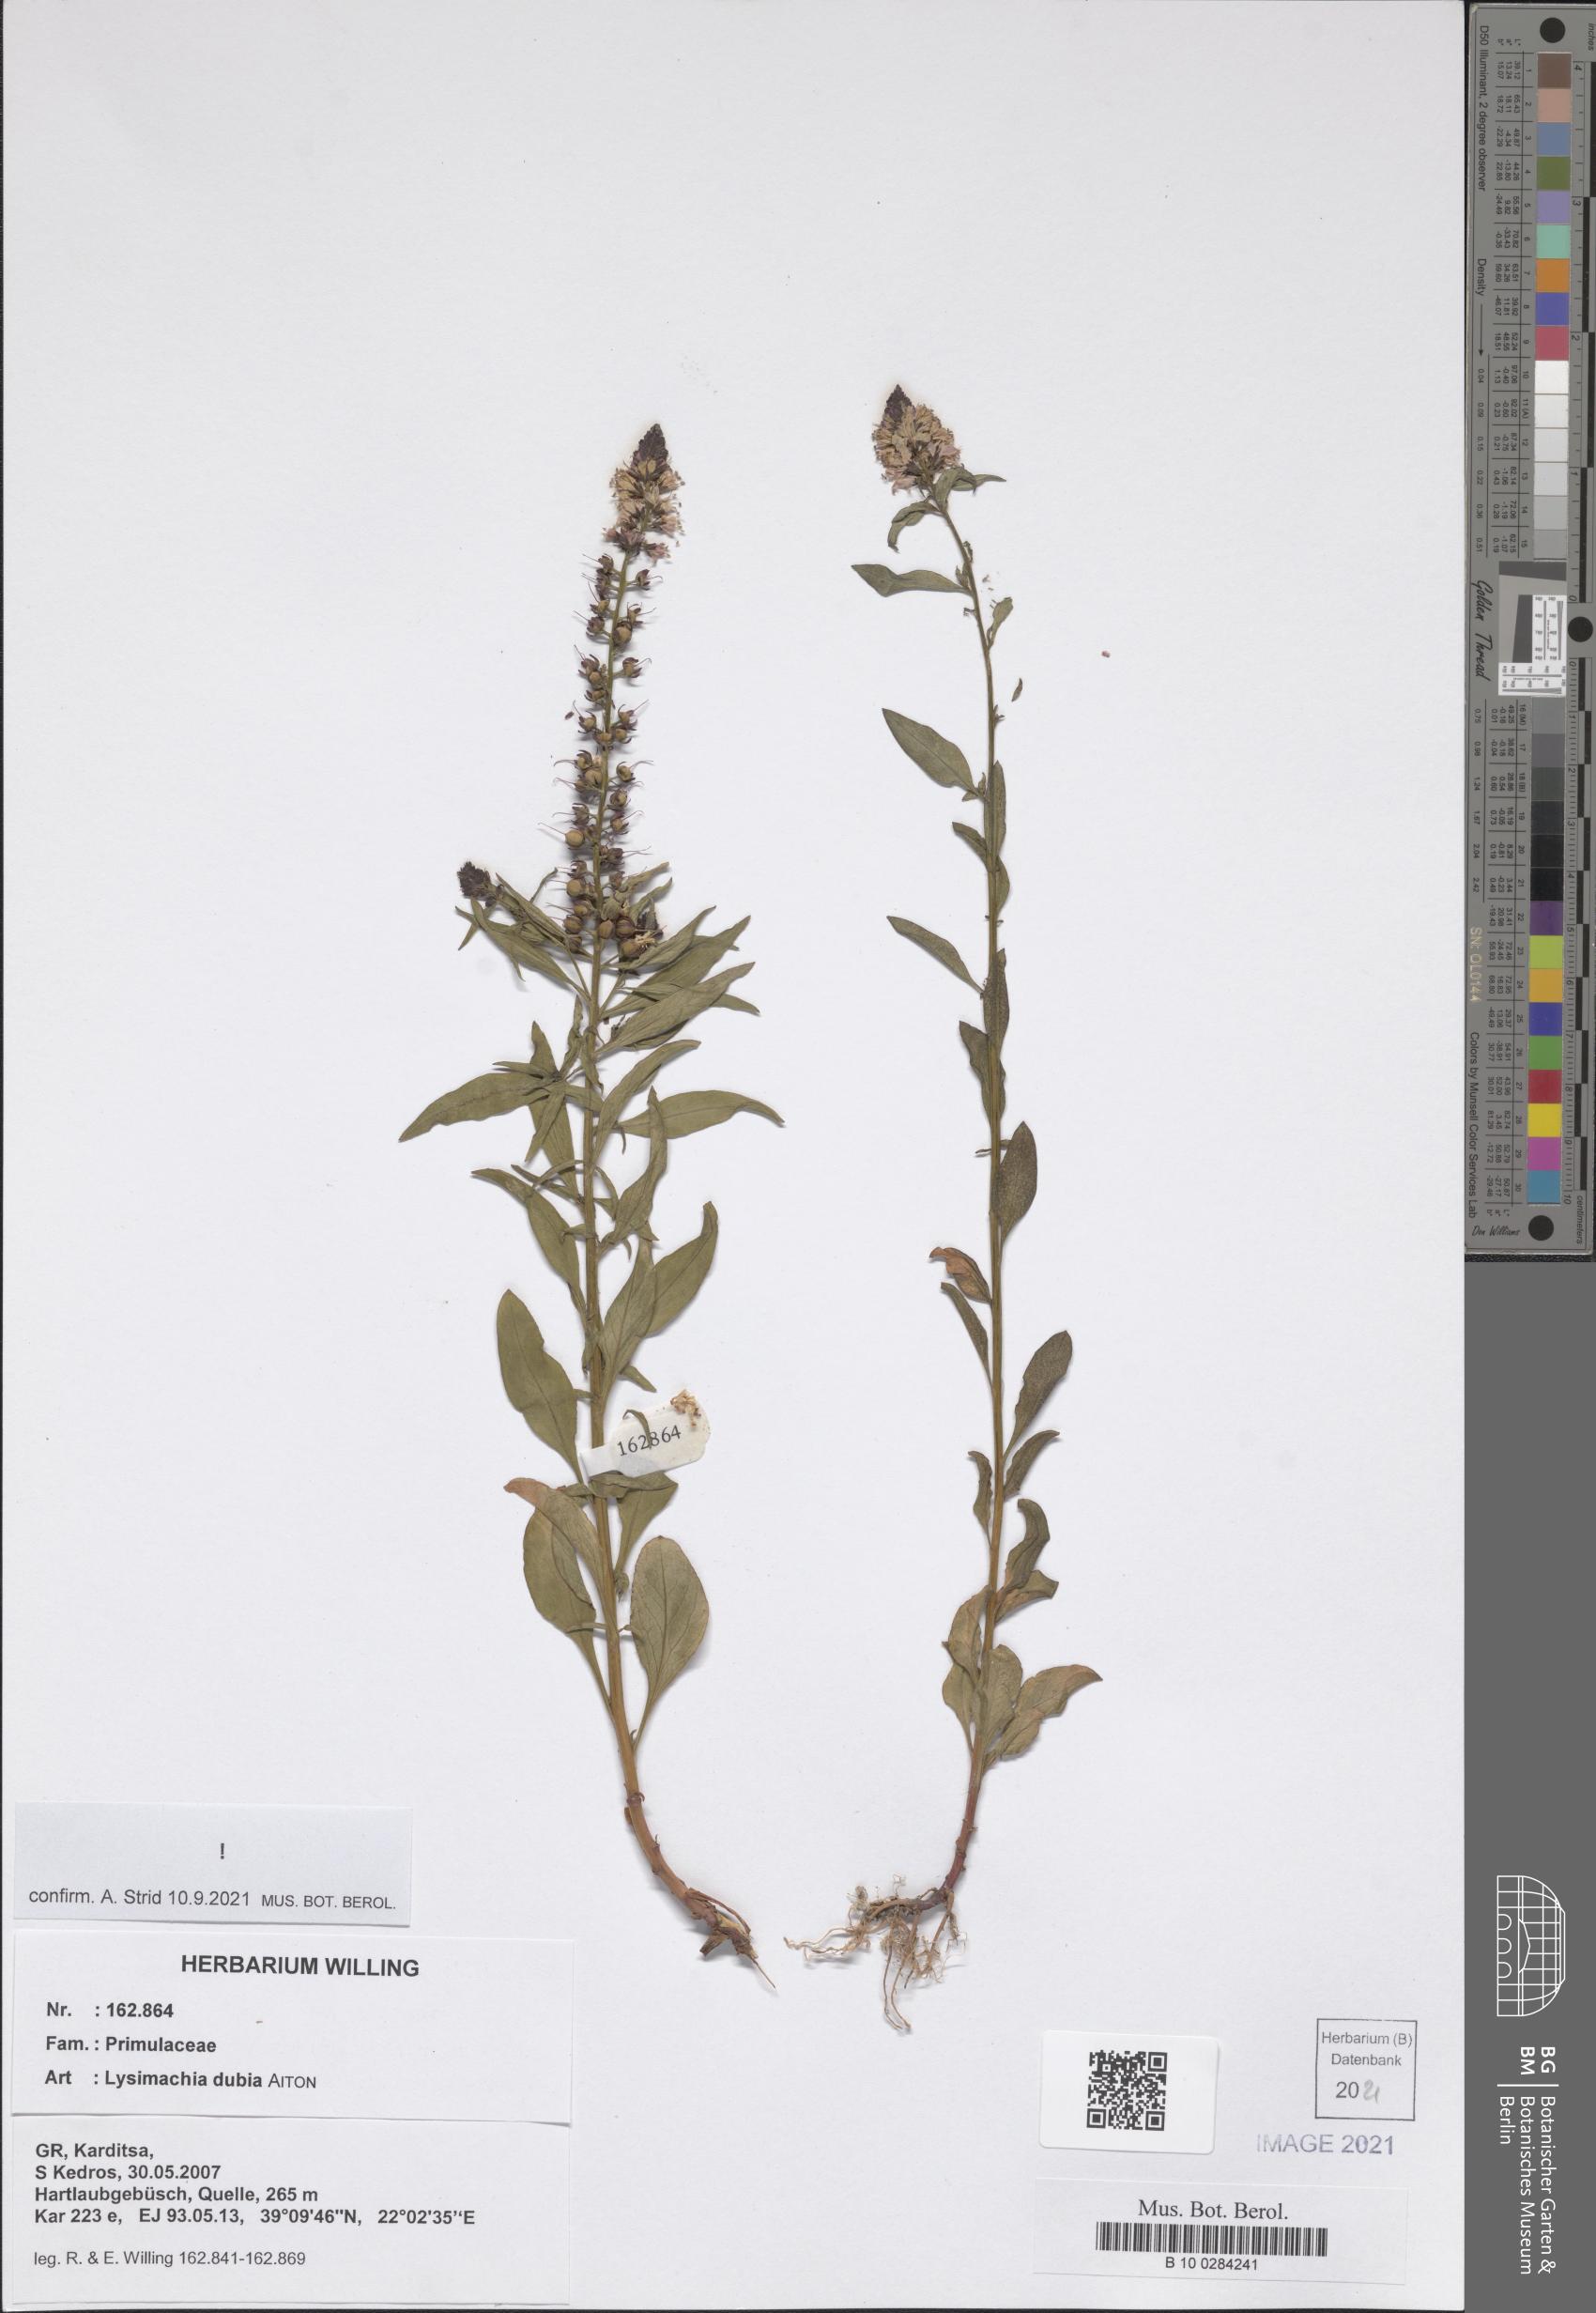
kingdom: Plantae
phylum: Tracheophyta
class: Magnoliopsida
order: Ericales
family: Primulaceae
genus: Lysimachia
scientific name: Lysimachia lanceolata
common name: Lance-leaved loosestrife
